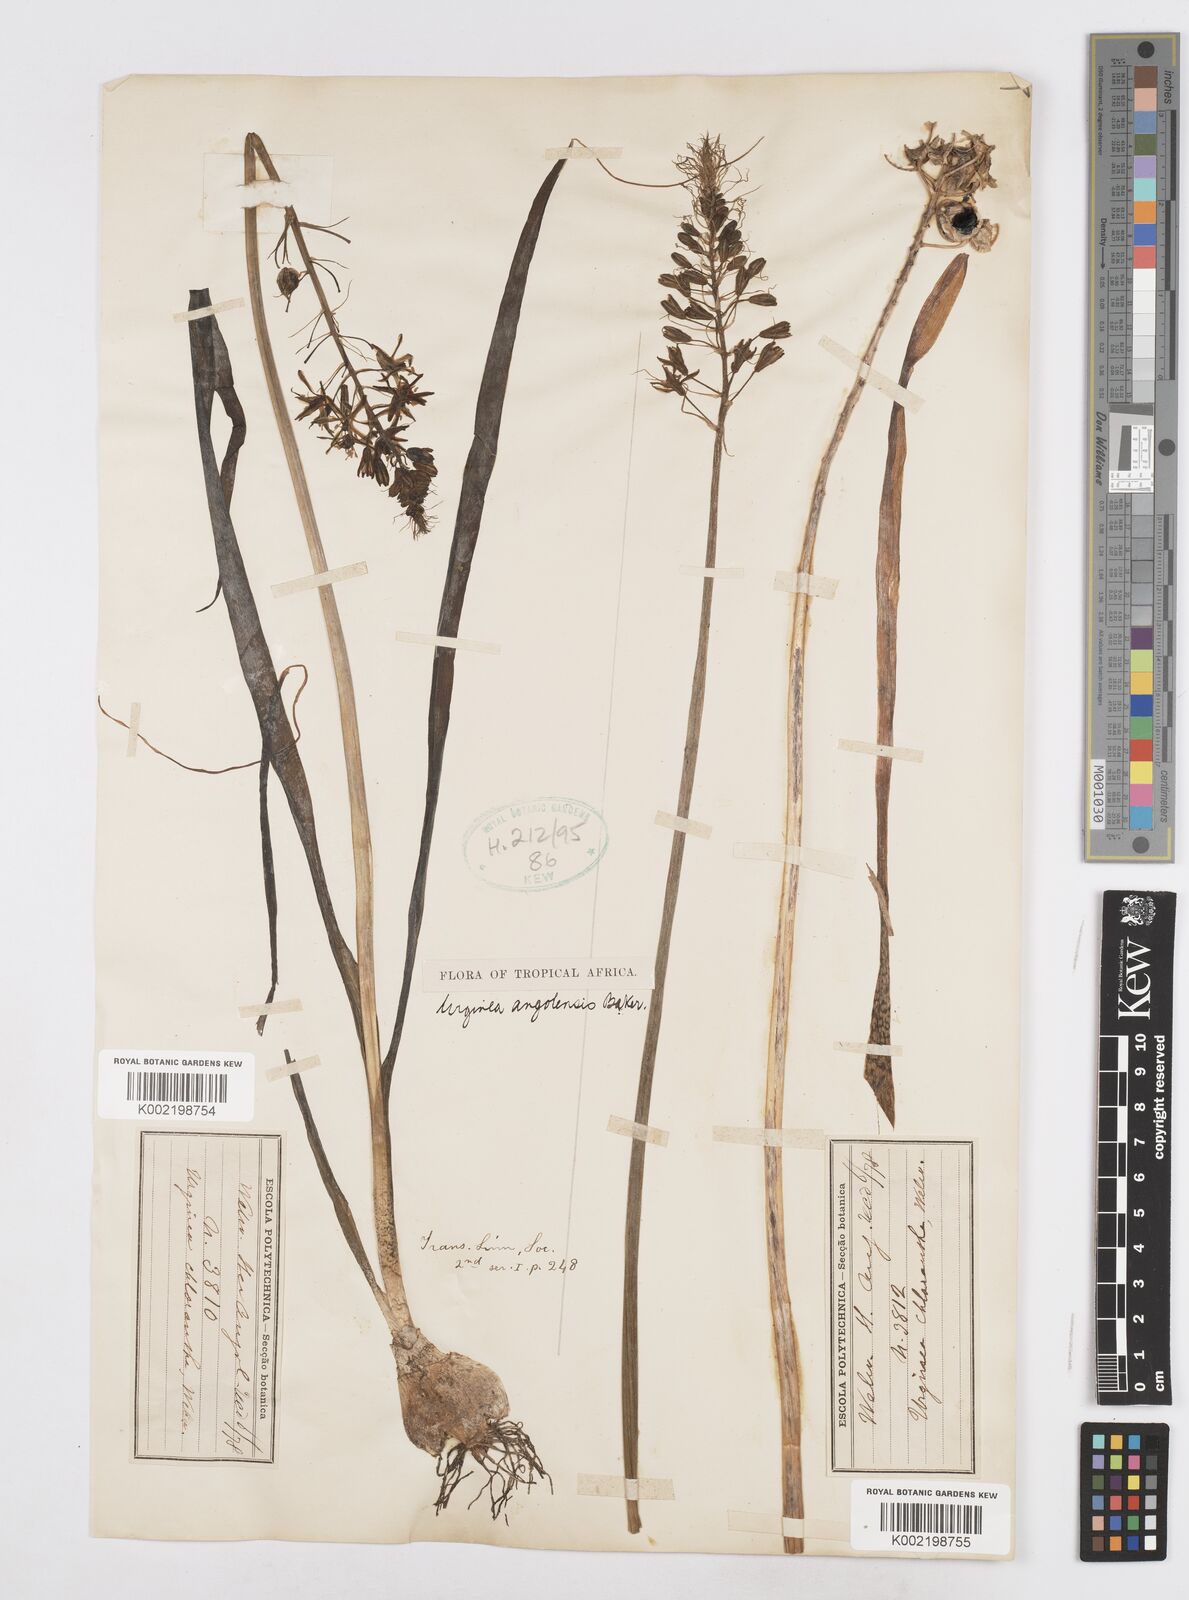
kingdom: Plantae
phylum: Tracheophyta
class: Liliopsida
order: Asparagales
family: Asparagaceae
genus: Drimia
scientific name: Drimia
